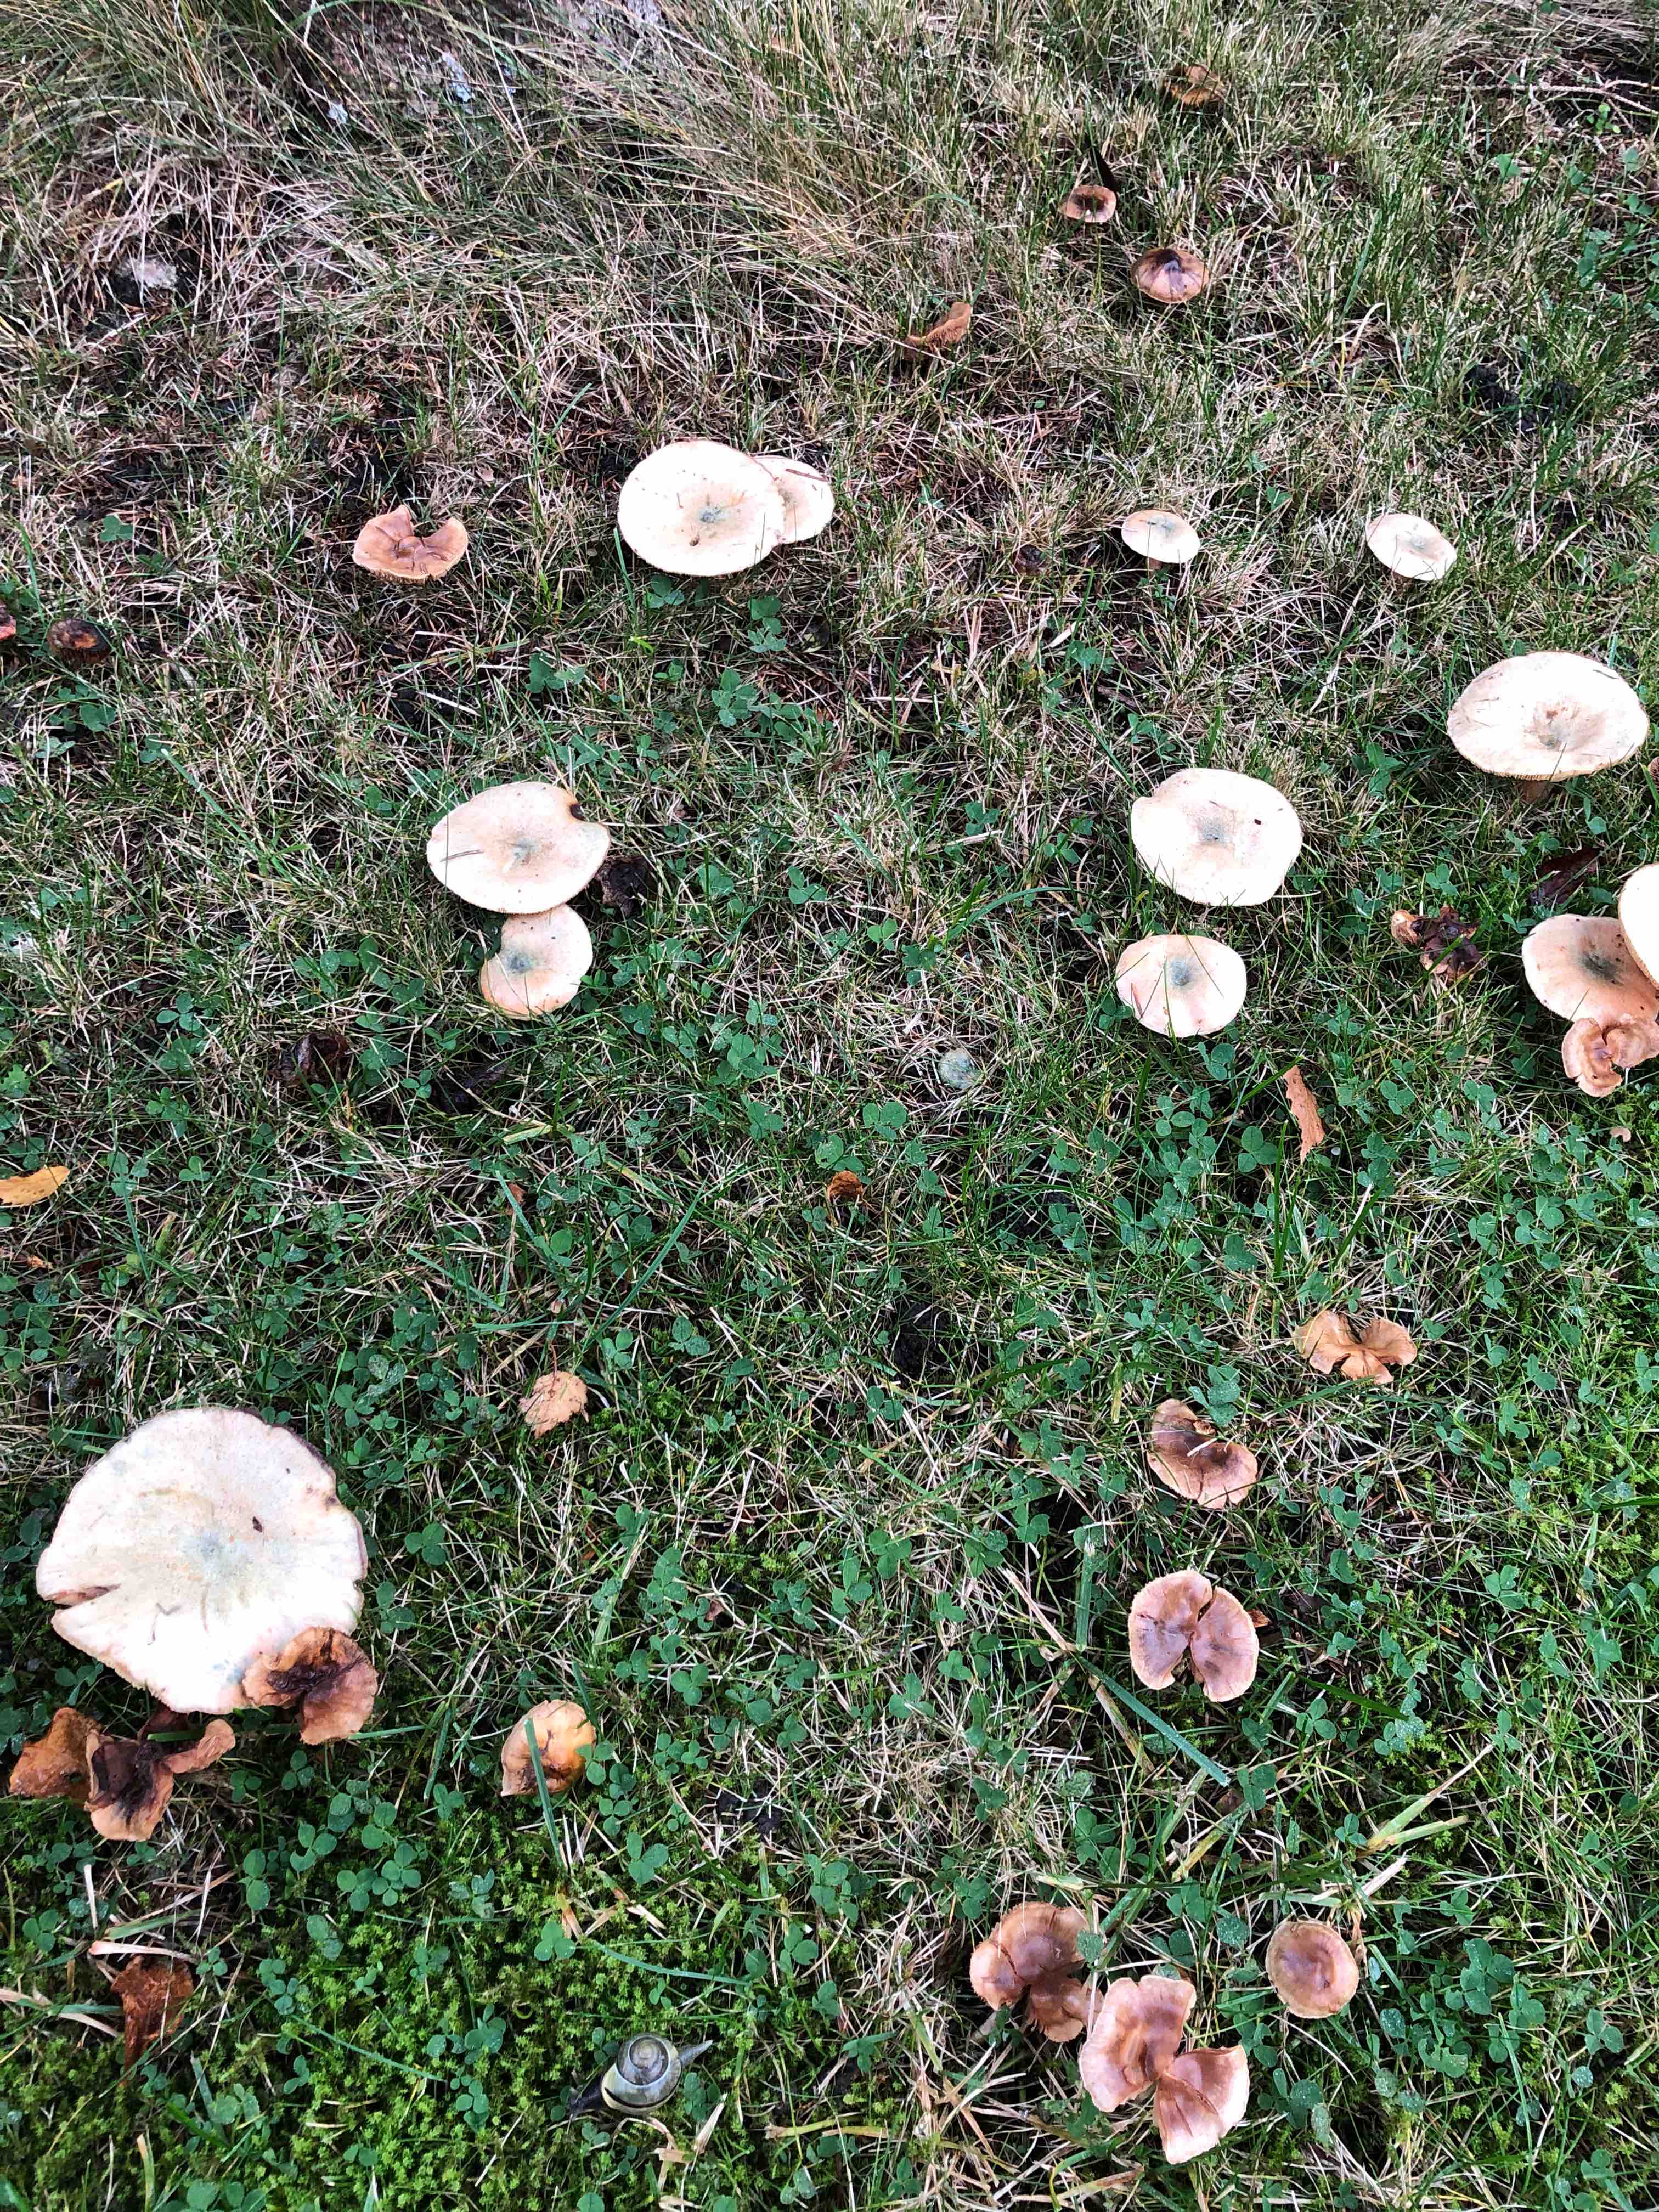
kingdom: Fungi
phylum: Basidiomycota
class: Agaricomycetes
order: Russulales
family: Russulaceae
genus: Lactarius
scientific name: Lactarius deterrimus
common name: gran-mælkehat
